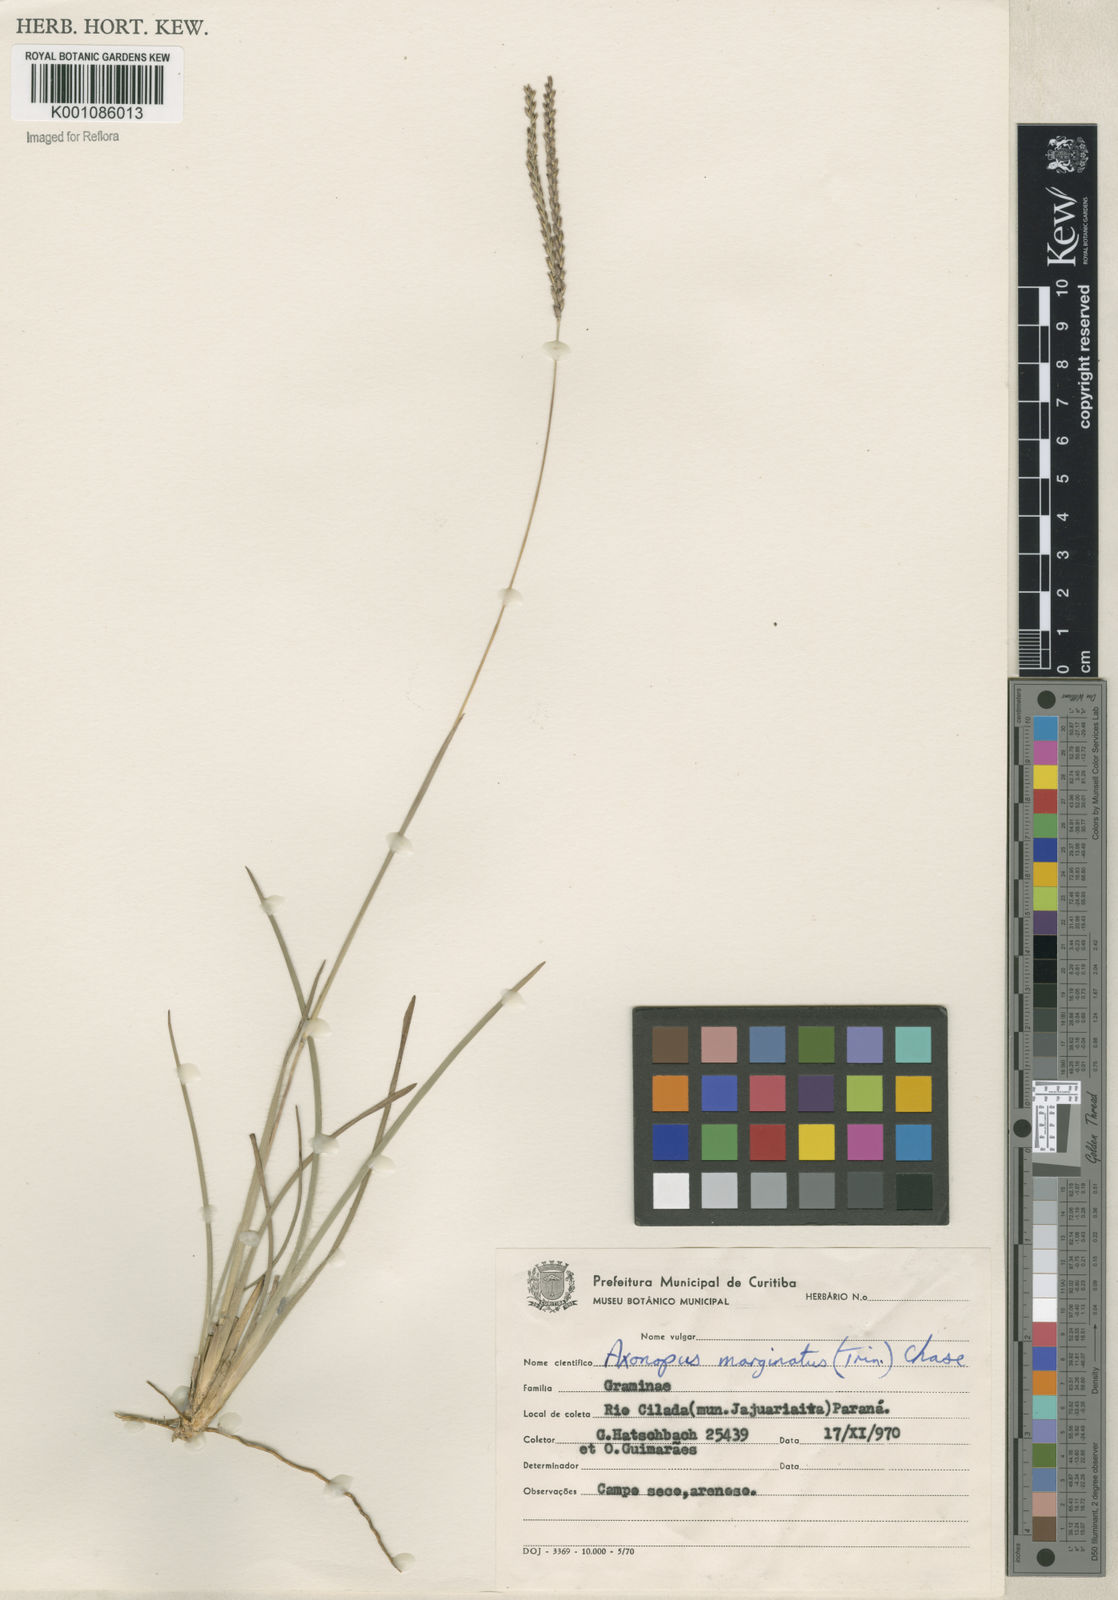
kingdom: Plantae
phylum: Tracheophyta
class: Liliopsida
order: Poales
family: Poaceae
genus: Axonopus
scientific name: Axonopus
